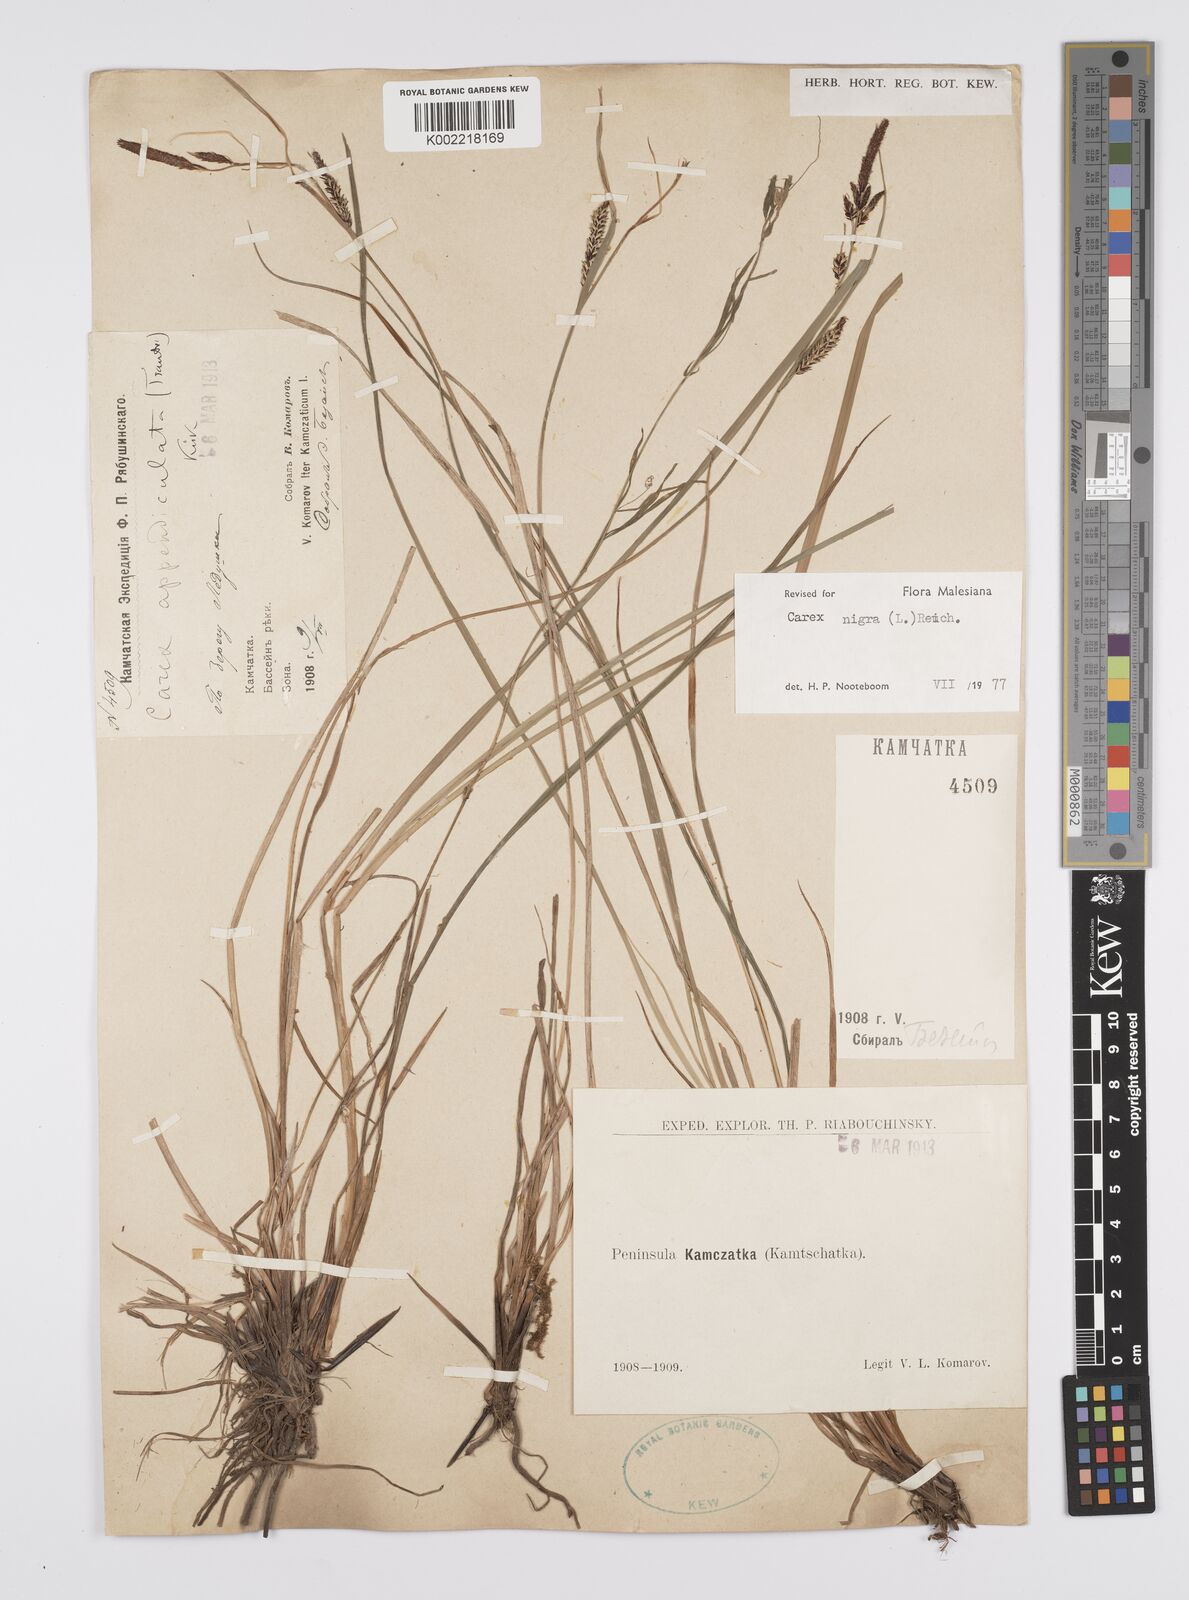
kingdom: Plantae
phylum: Tracheophyta
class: Liliopsida
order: Poales
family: Cyperaceae
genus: Carex
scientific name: Carex nigra
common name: Common sedge
